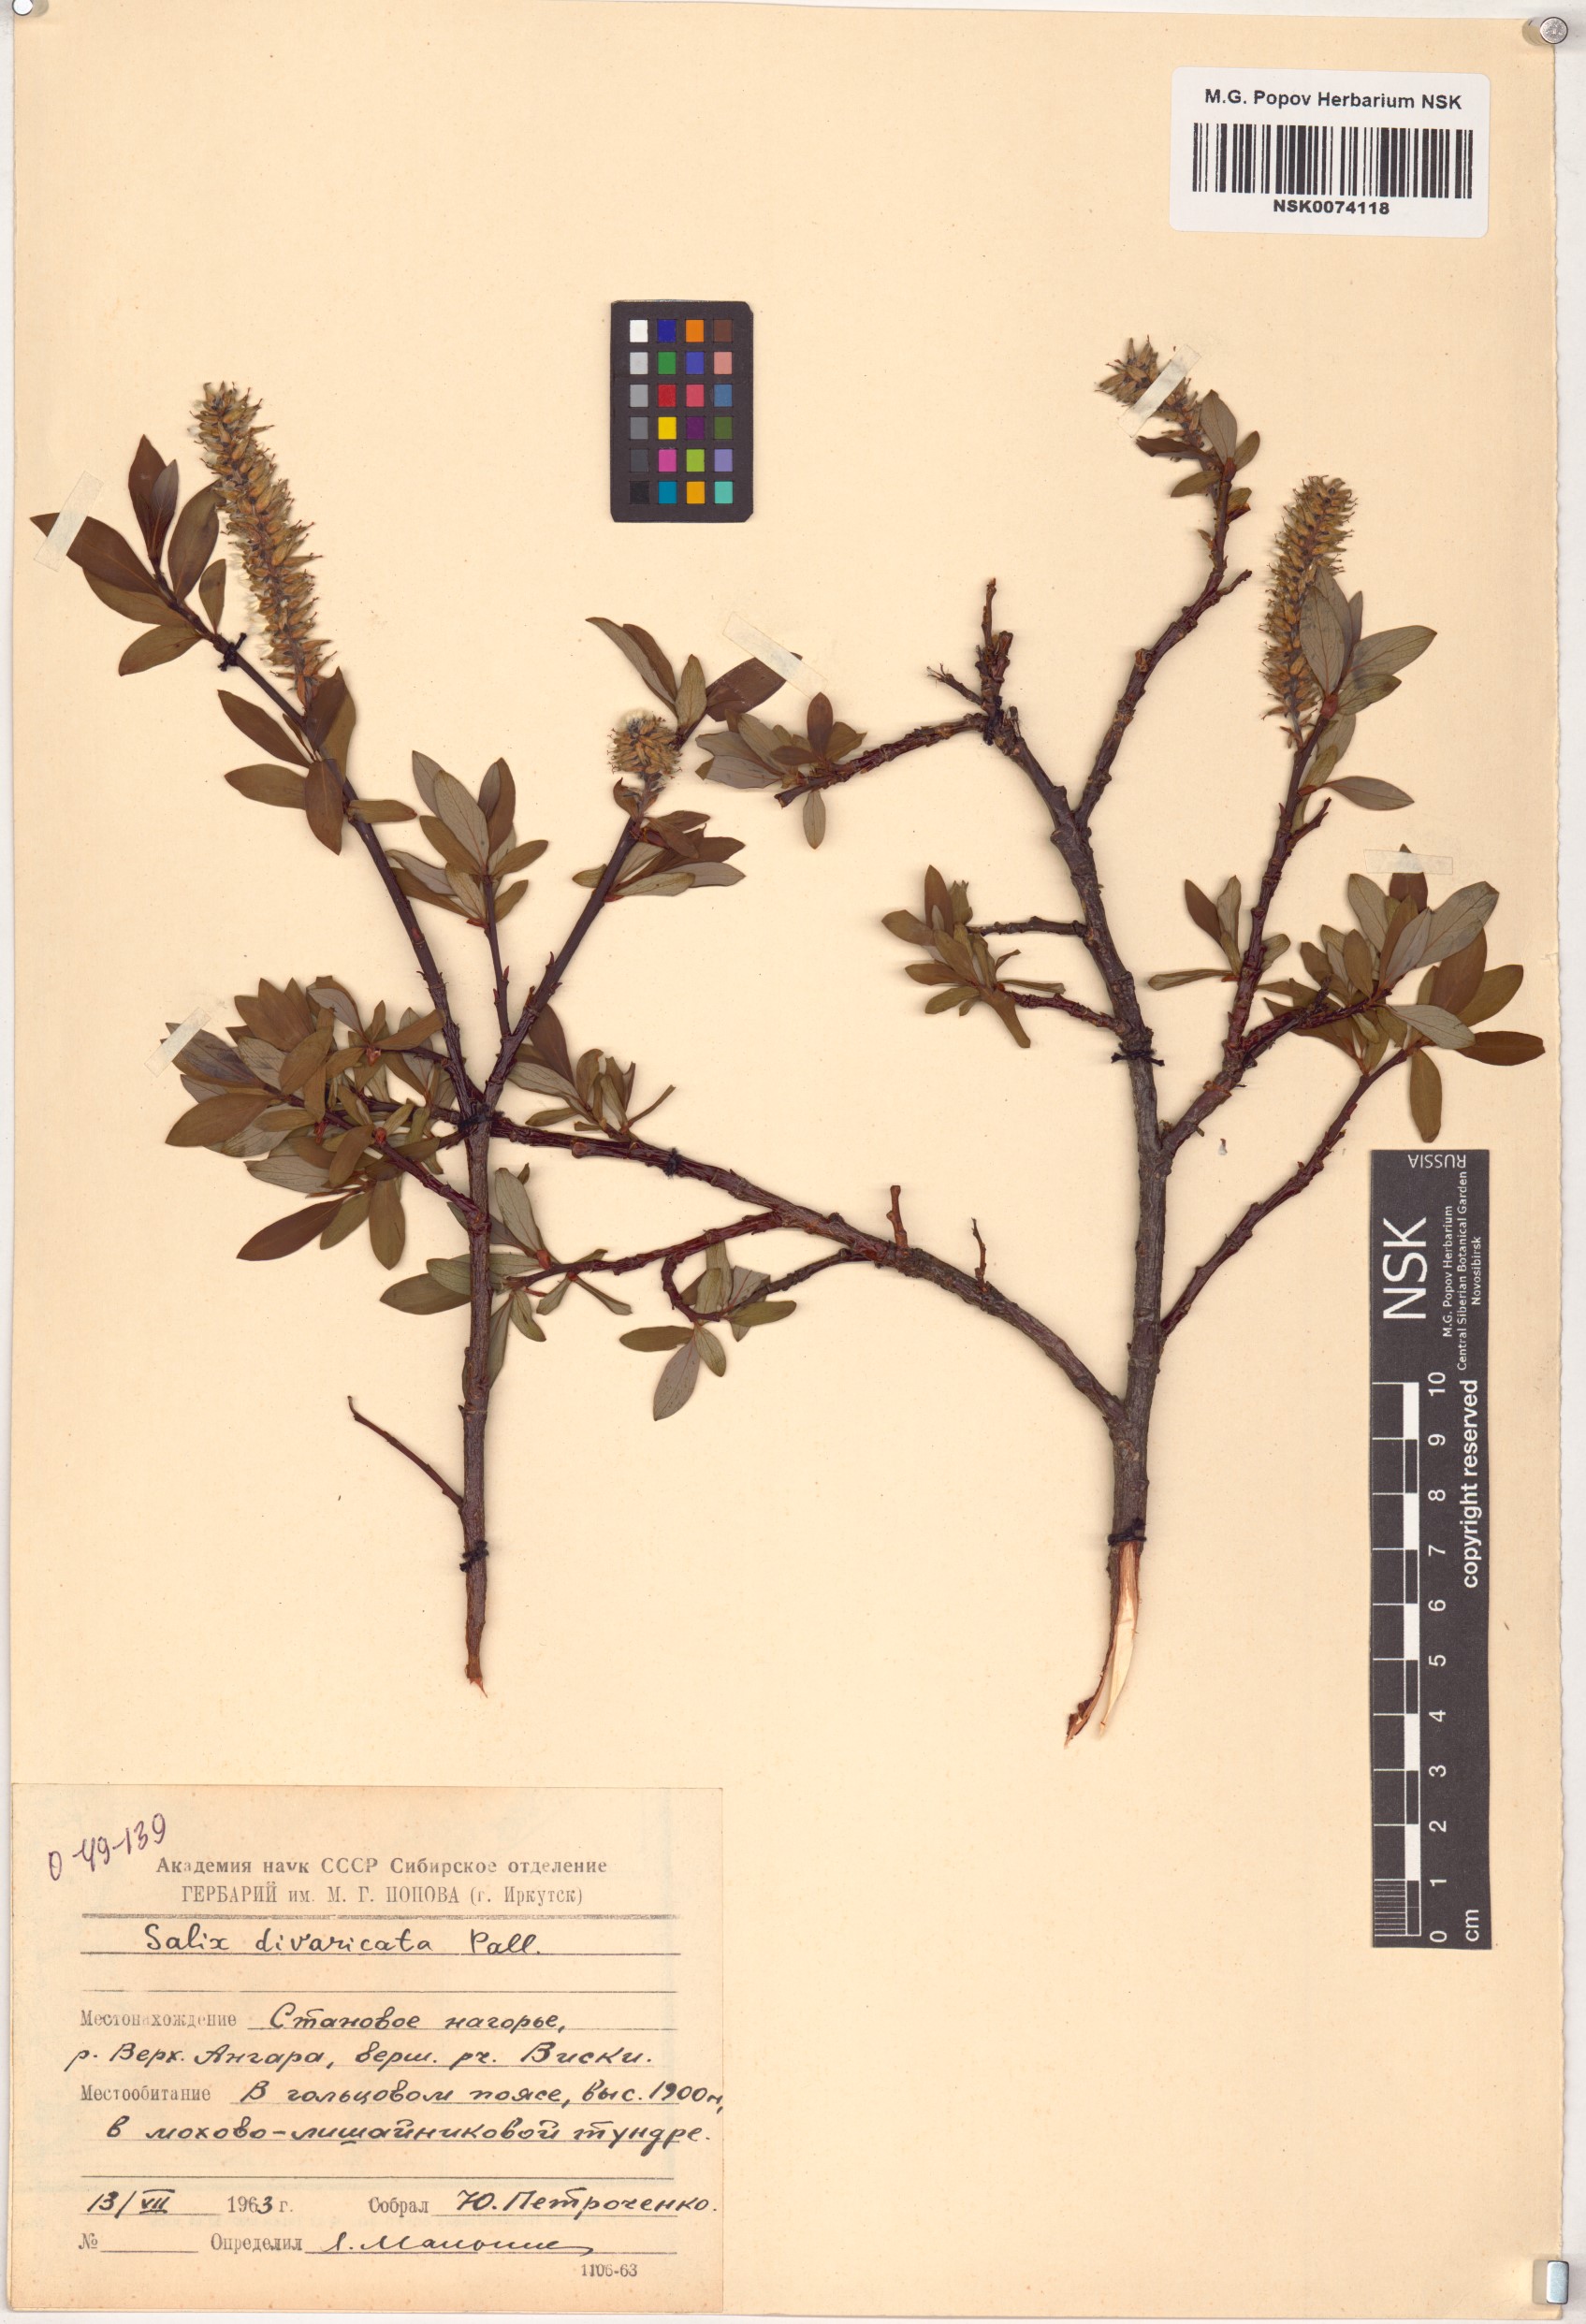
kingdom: Plantae
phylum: Tracheophyta
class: Magnoliopsida
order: Malpighiales
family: Salicaceae
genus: Salix
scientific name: Salix divaricata
